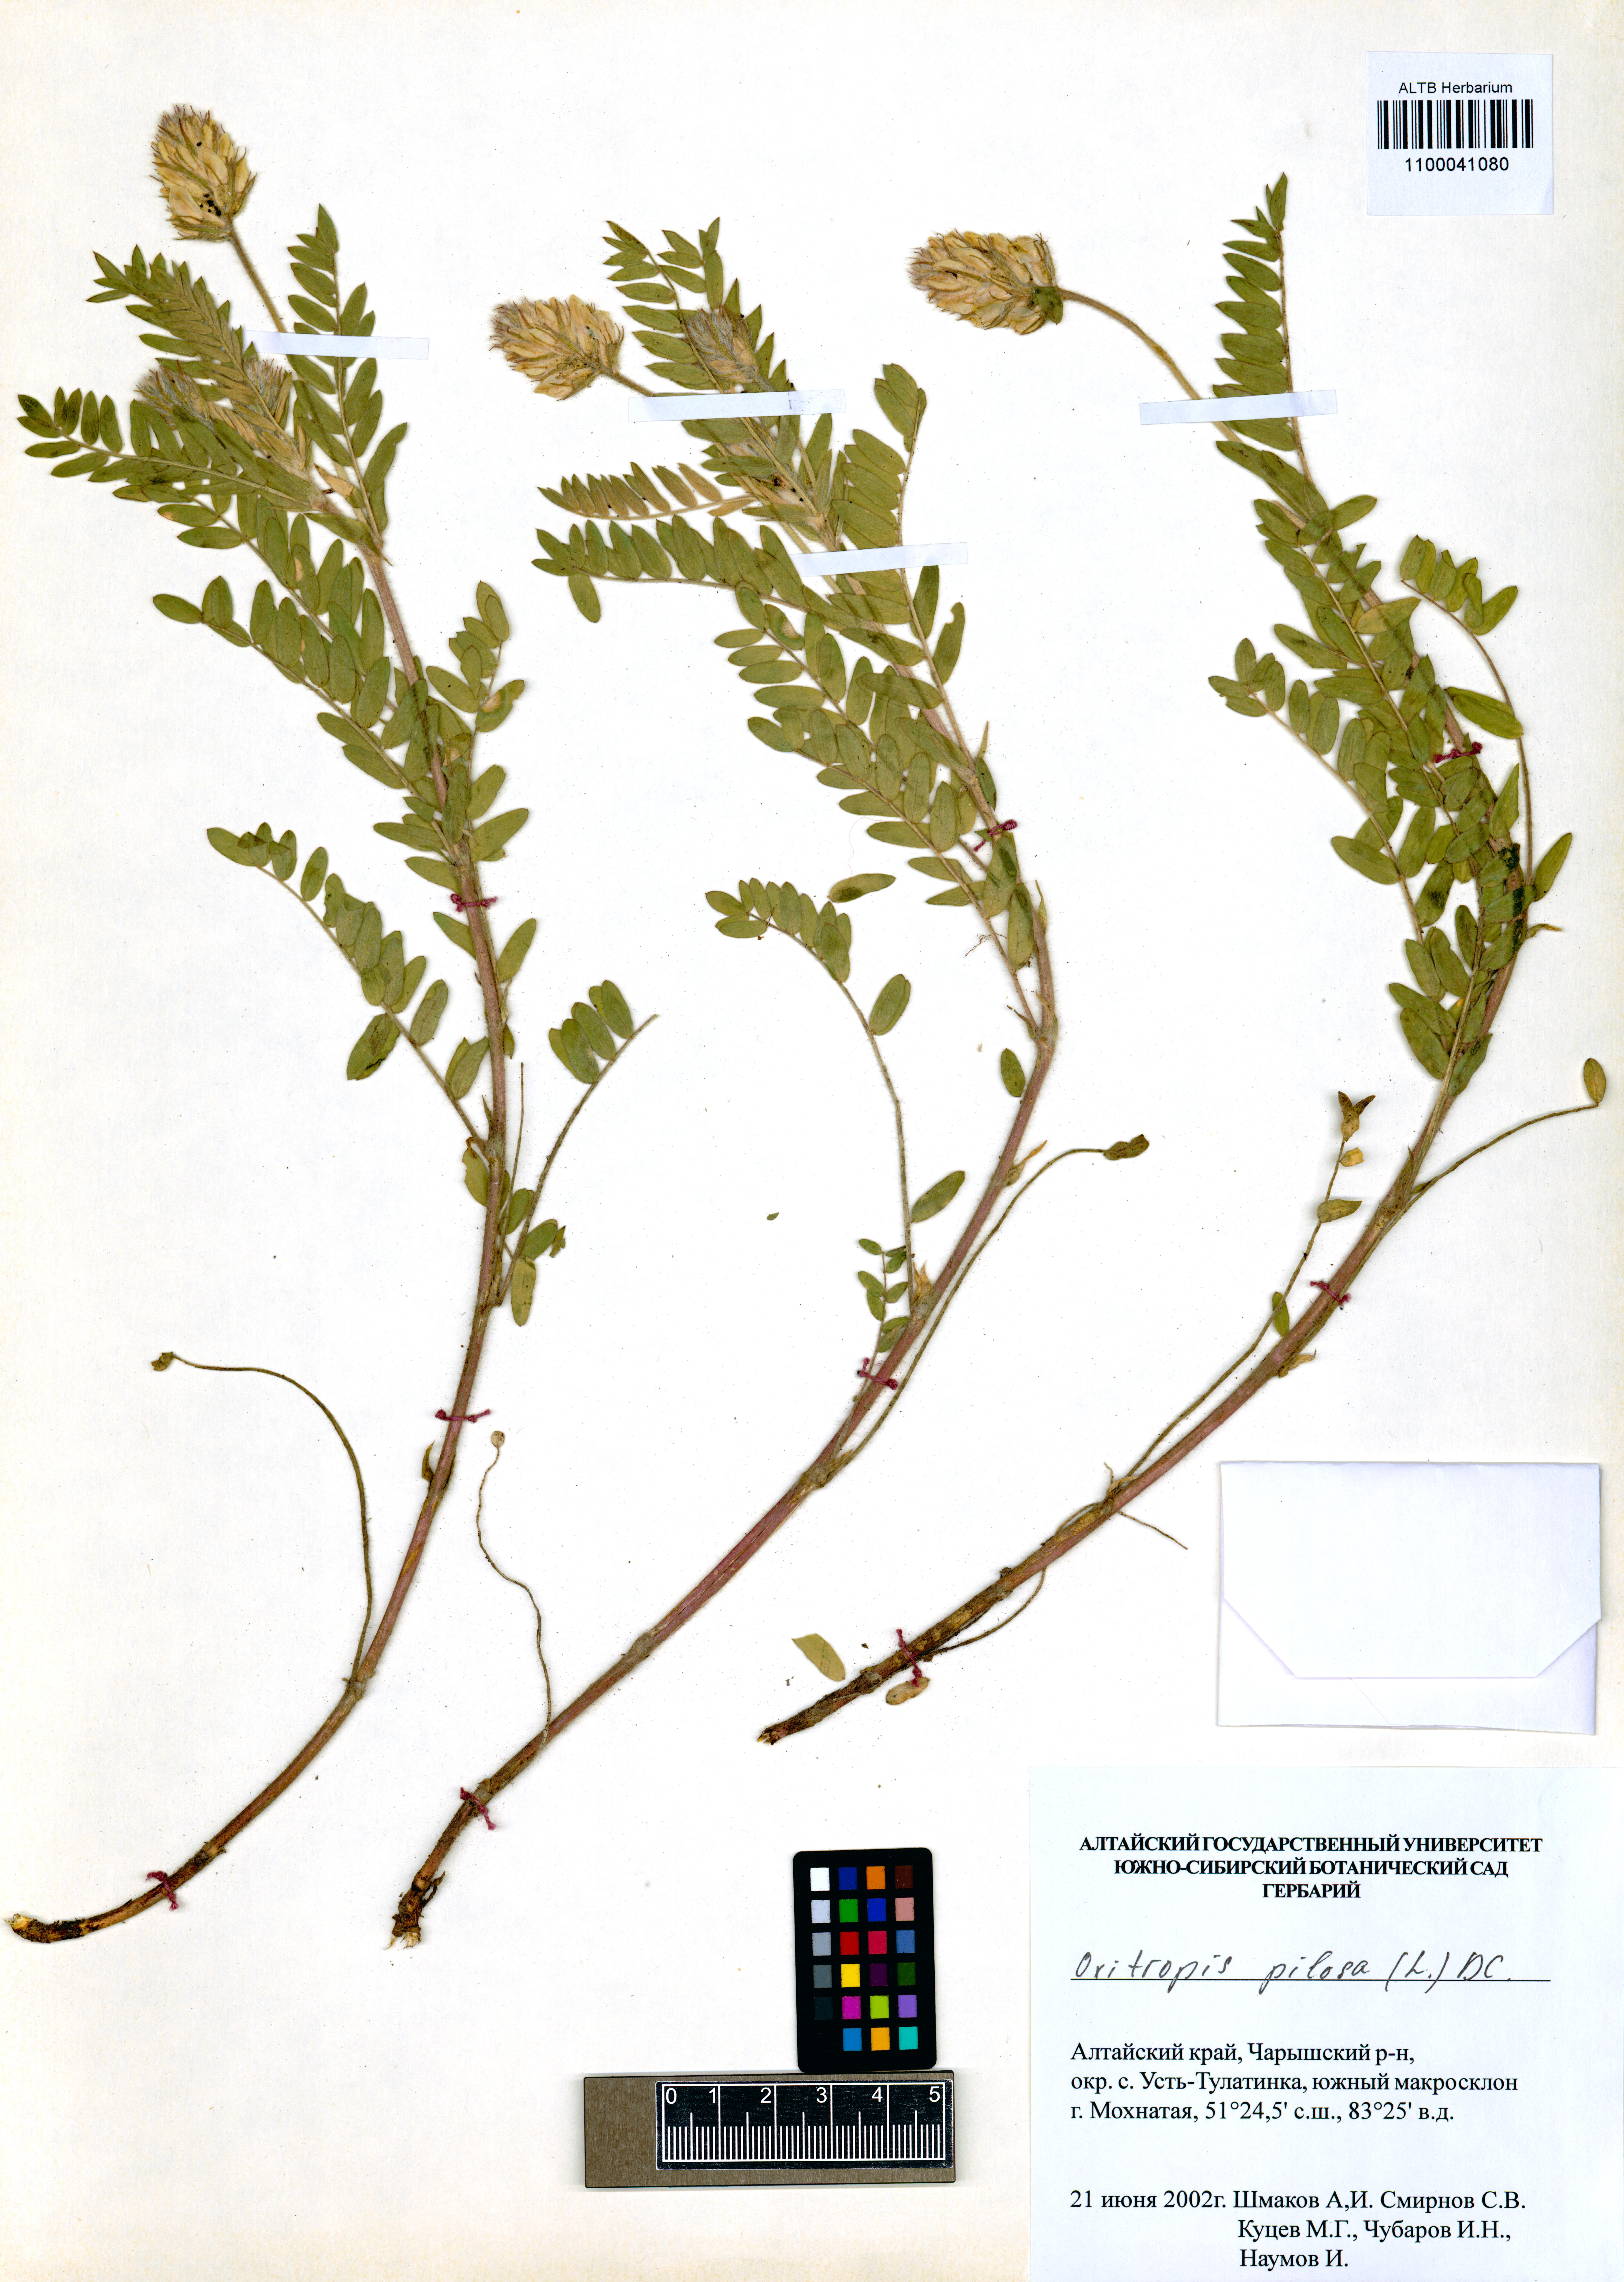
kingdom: Plantae
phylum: Tracheophyta
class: Magnoliopsida
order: Fabales
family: Fabaceae
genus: Oxytropis
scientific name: Oxytropis pilosa
